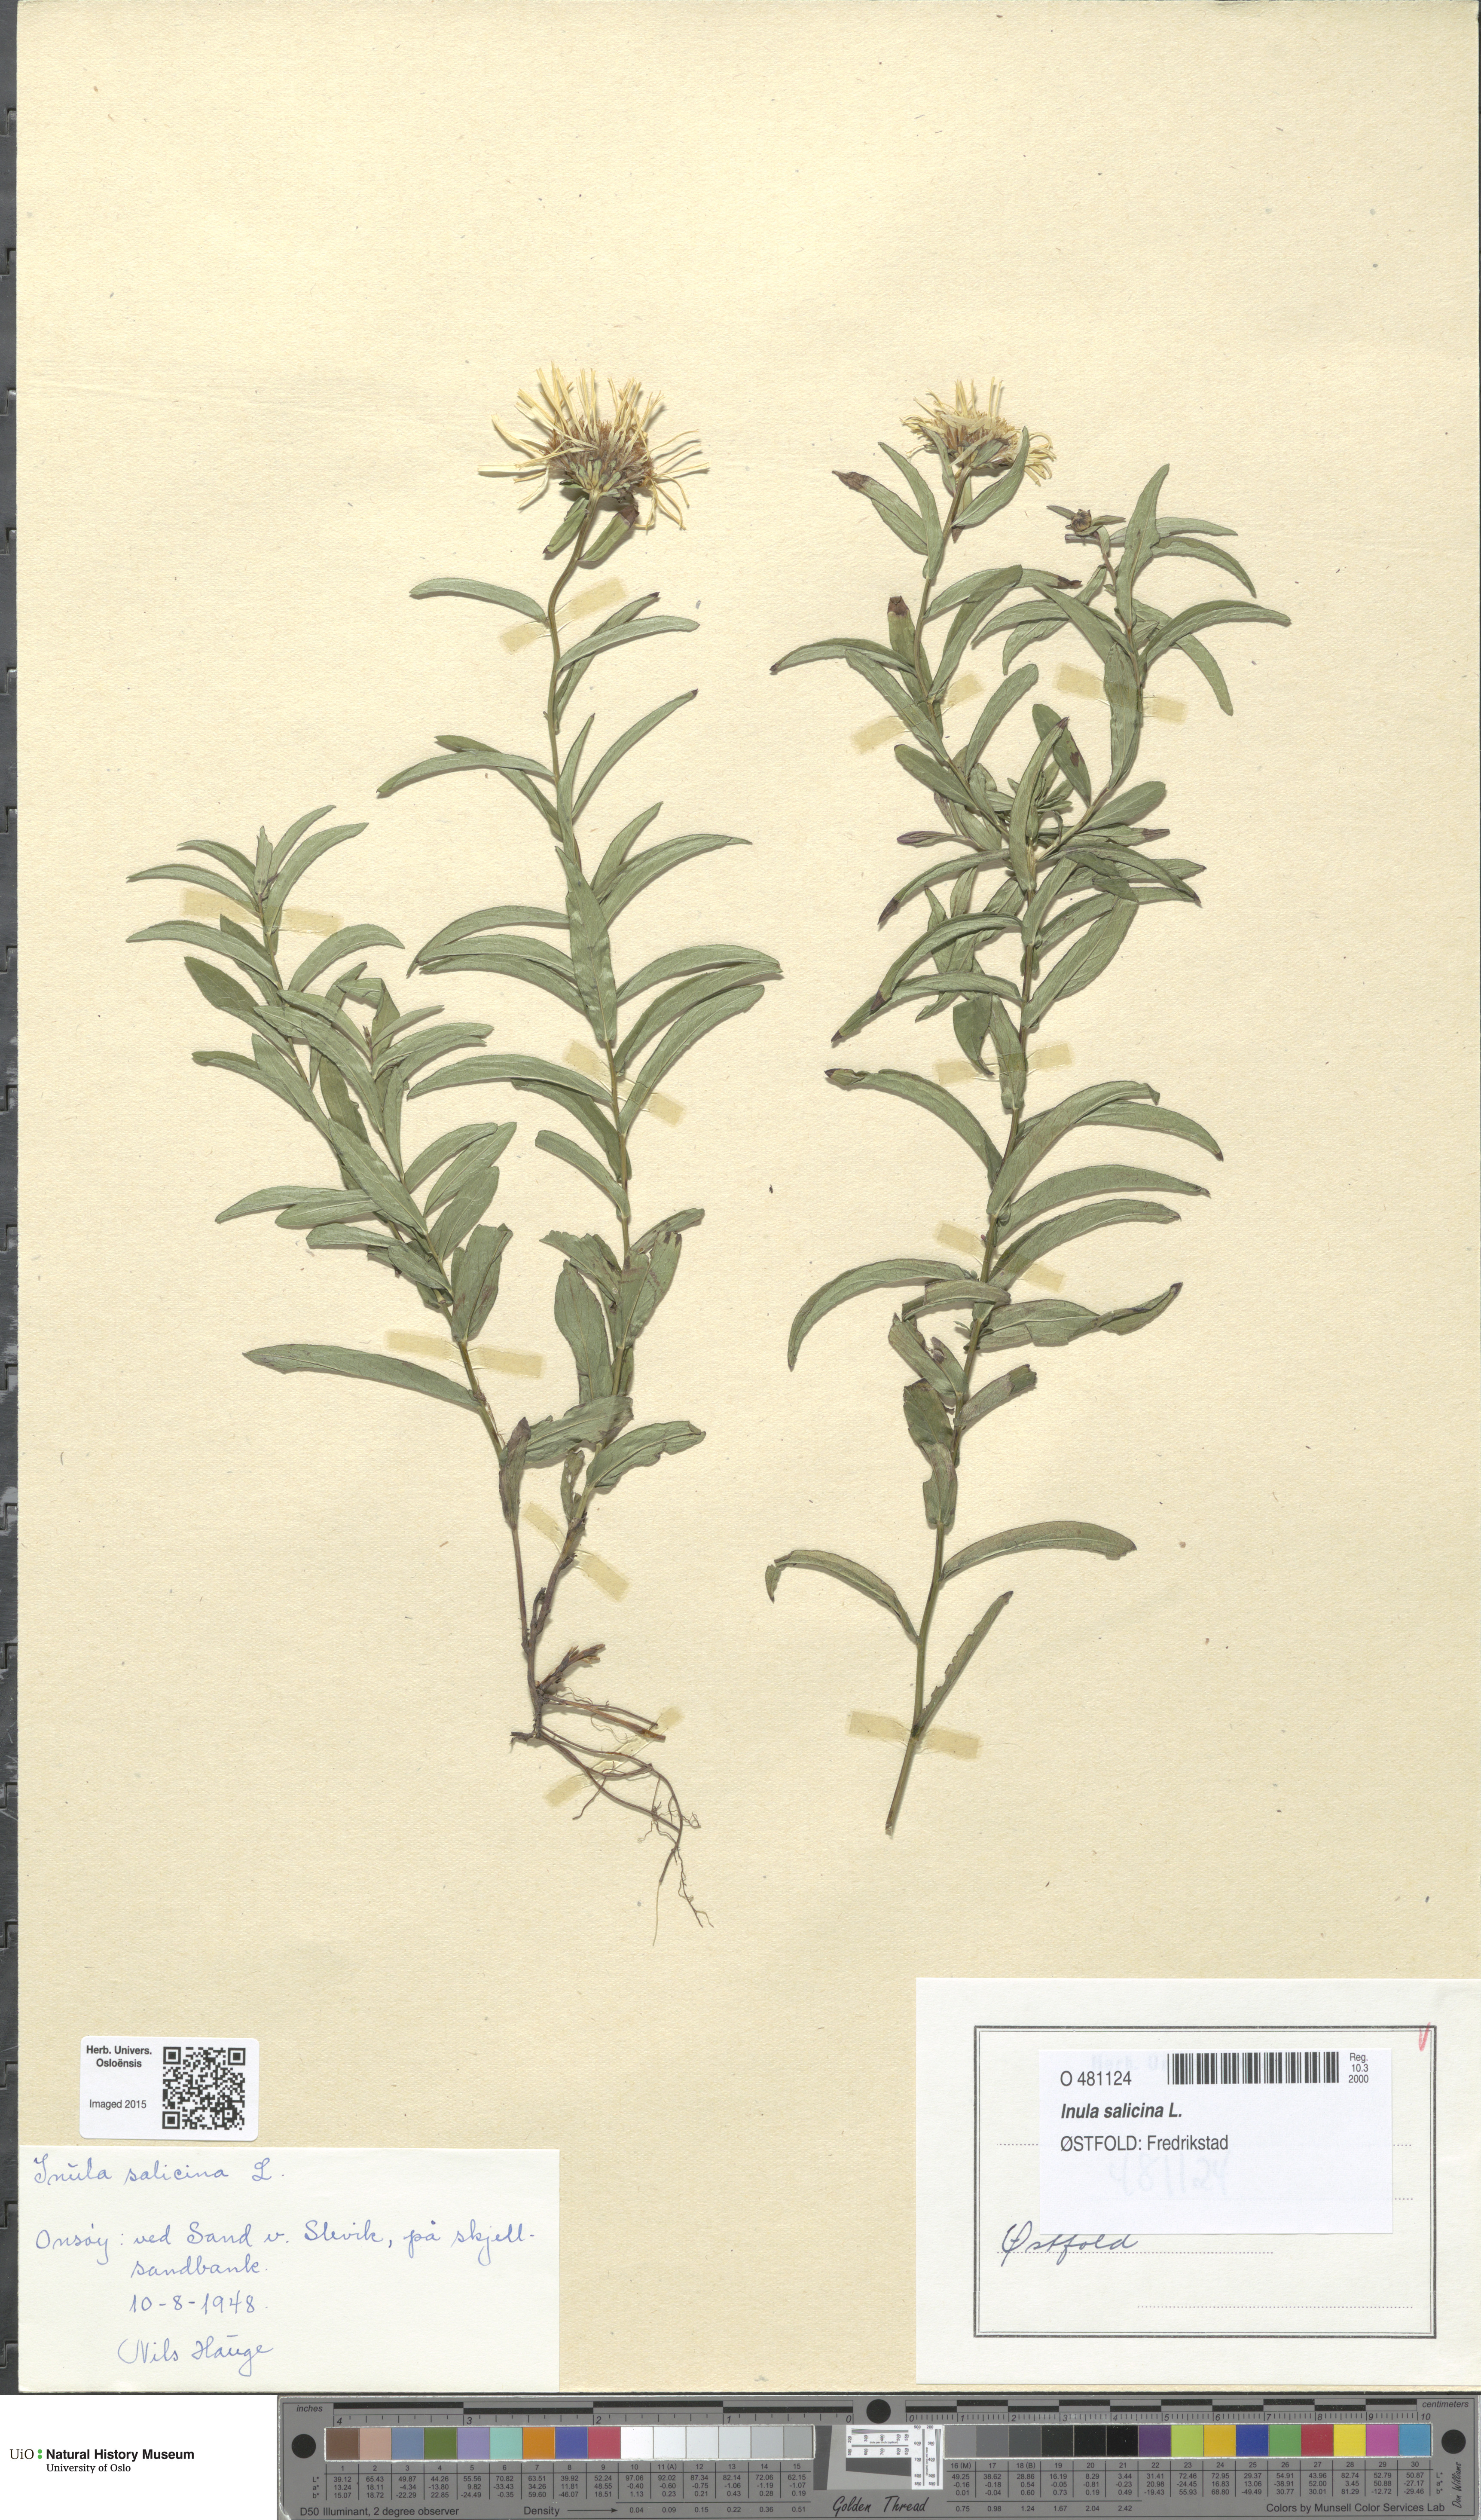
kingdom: Plantae
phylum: Tracheophyta
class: Magnoliopsida
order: Asterales
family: Asteraceae
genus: Pentanema
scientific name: Pentanema salicinum
